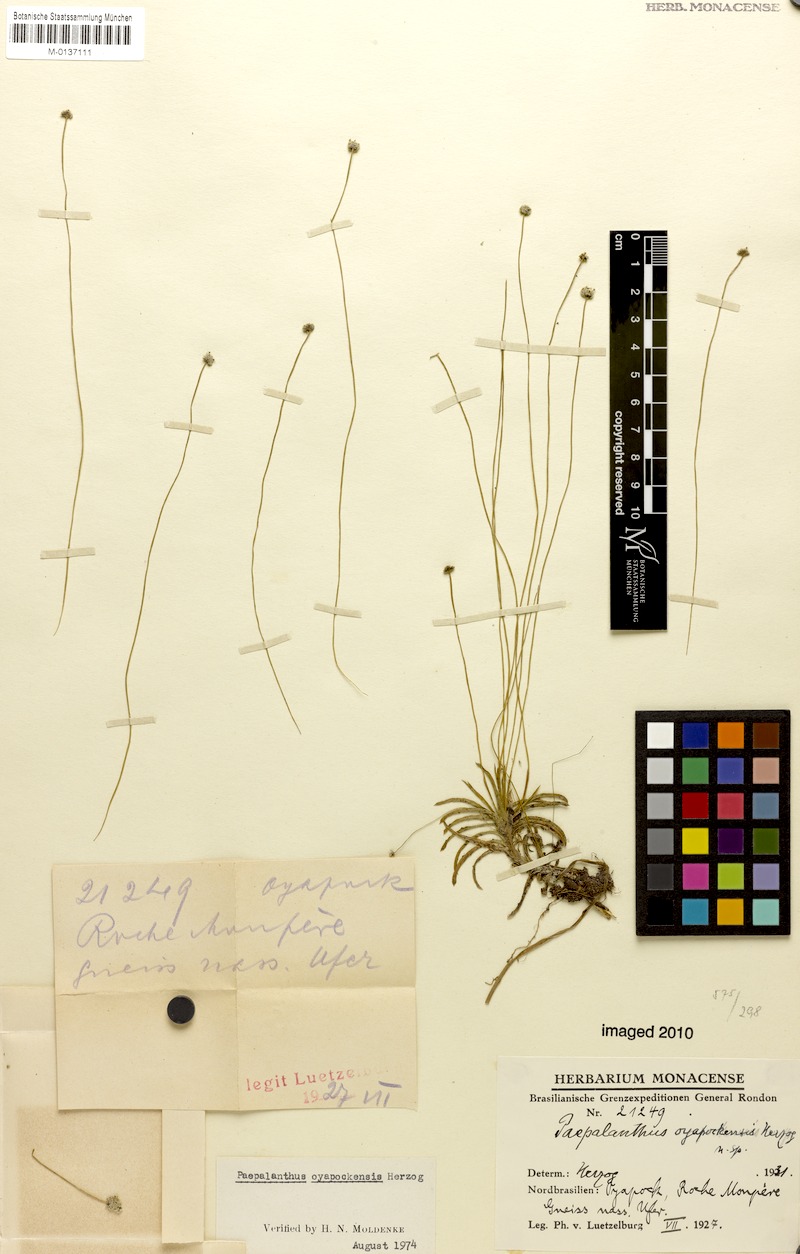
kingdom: Plantae
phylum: Tracheophyta
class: Liliopsida
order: Poales
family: Eriocaulaceae
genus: Paepalanthus
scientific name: Paepalanthus oyapockensis
